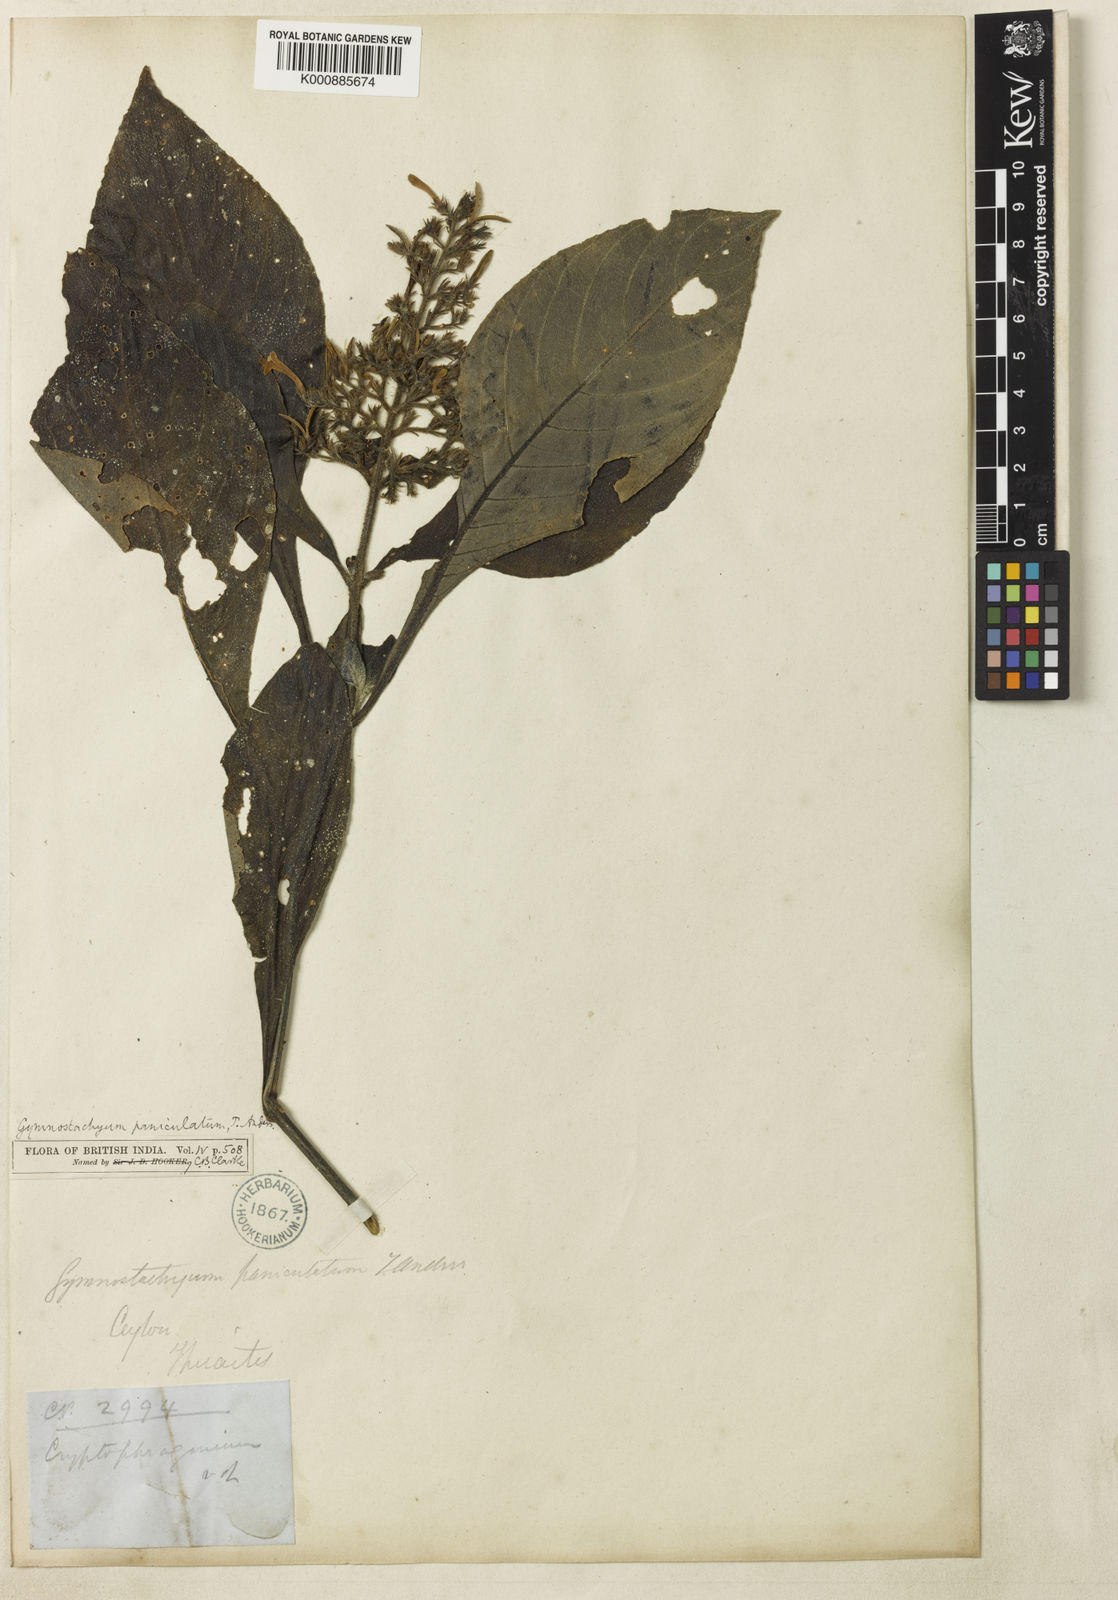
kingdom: Plantae
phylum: Tracheophyta
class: Magnoliopsida
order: Lamiales
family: Acanthaceae
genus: Gymnostachyum
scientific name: Gymnostachyum paniculatum
